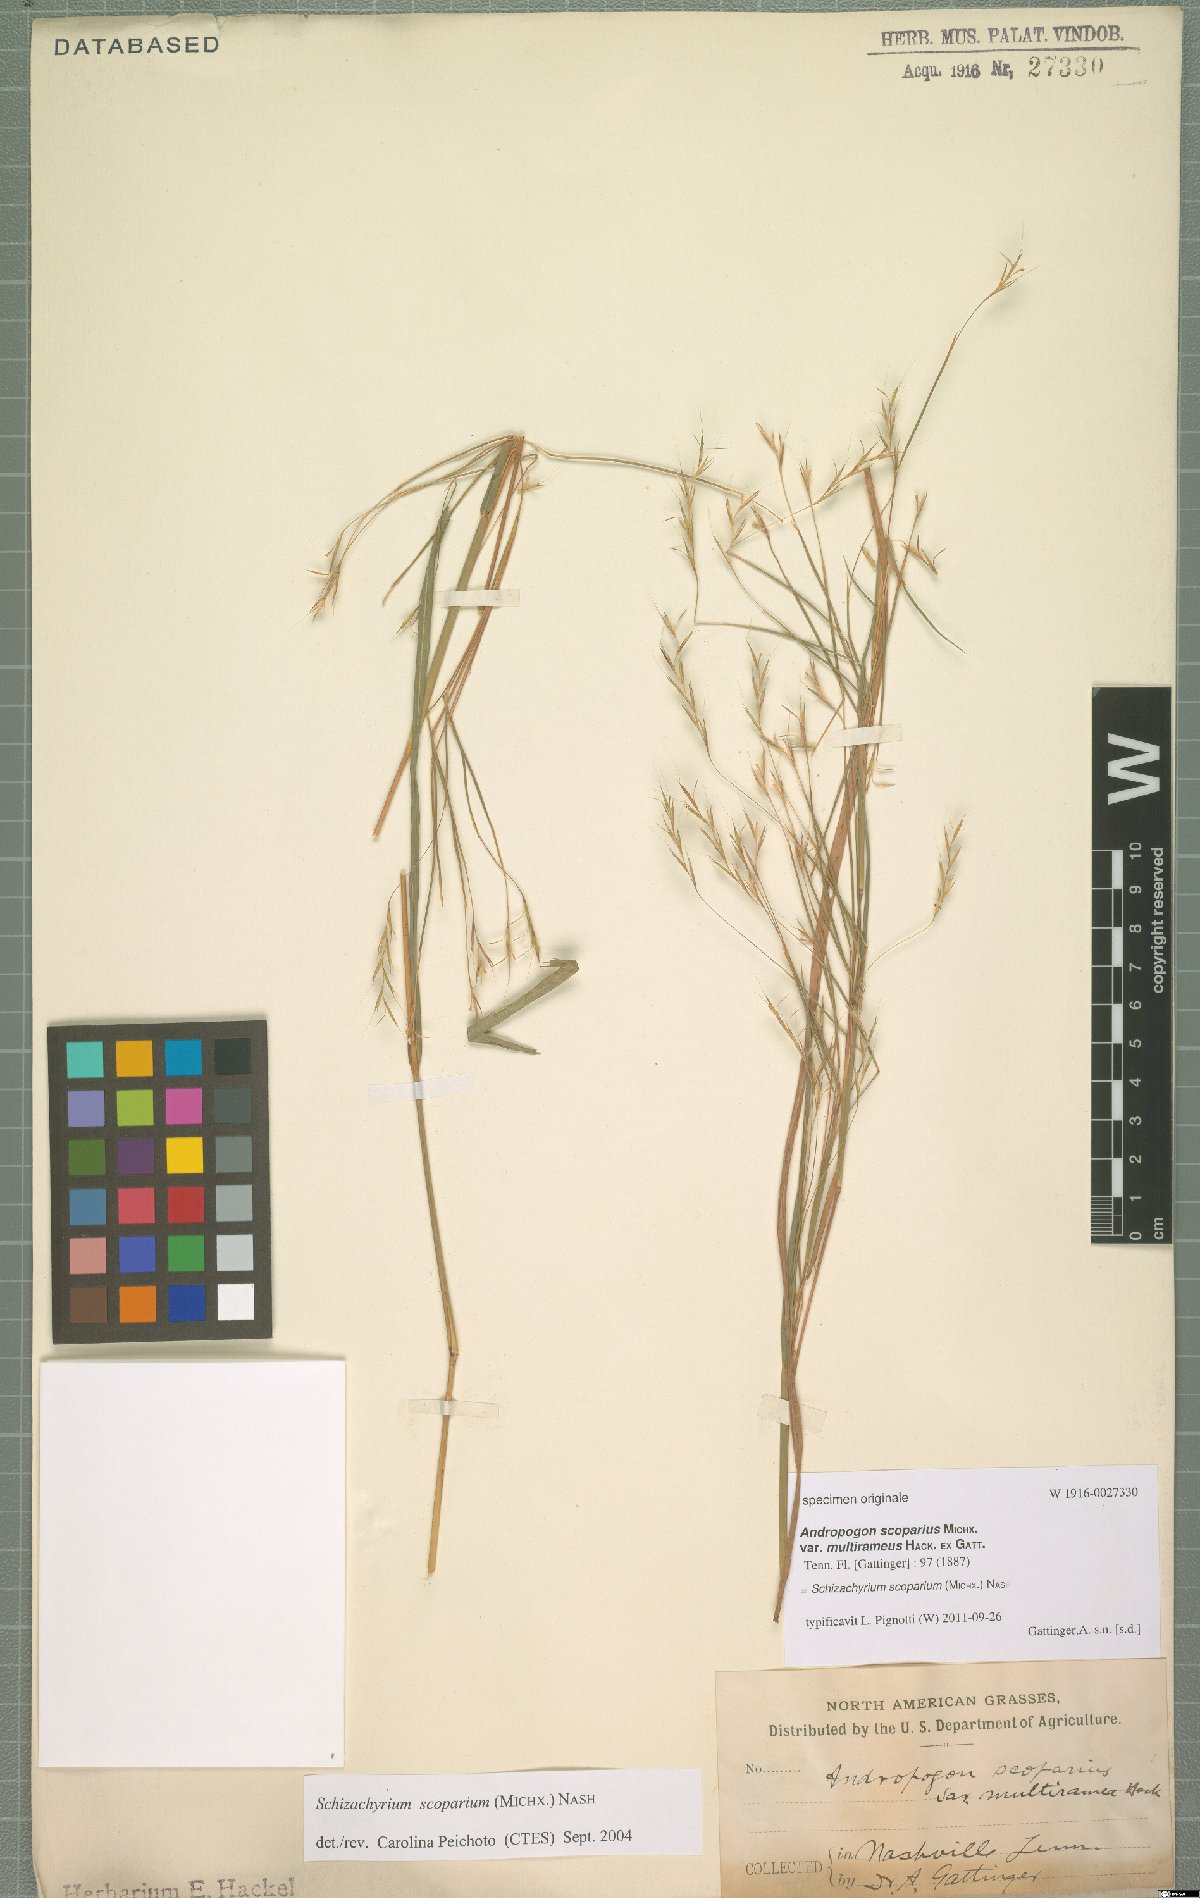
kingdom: Plantae
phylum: Tracheophyta
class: Liliopsida
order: Poales
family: Poaceae
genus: Schizachyrium
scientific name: Schizachyrium scoparium
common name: Little bluestem
